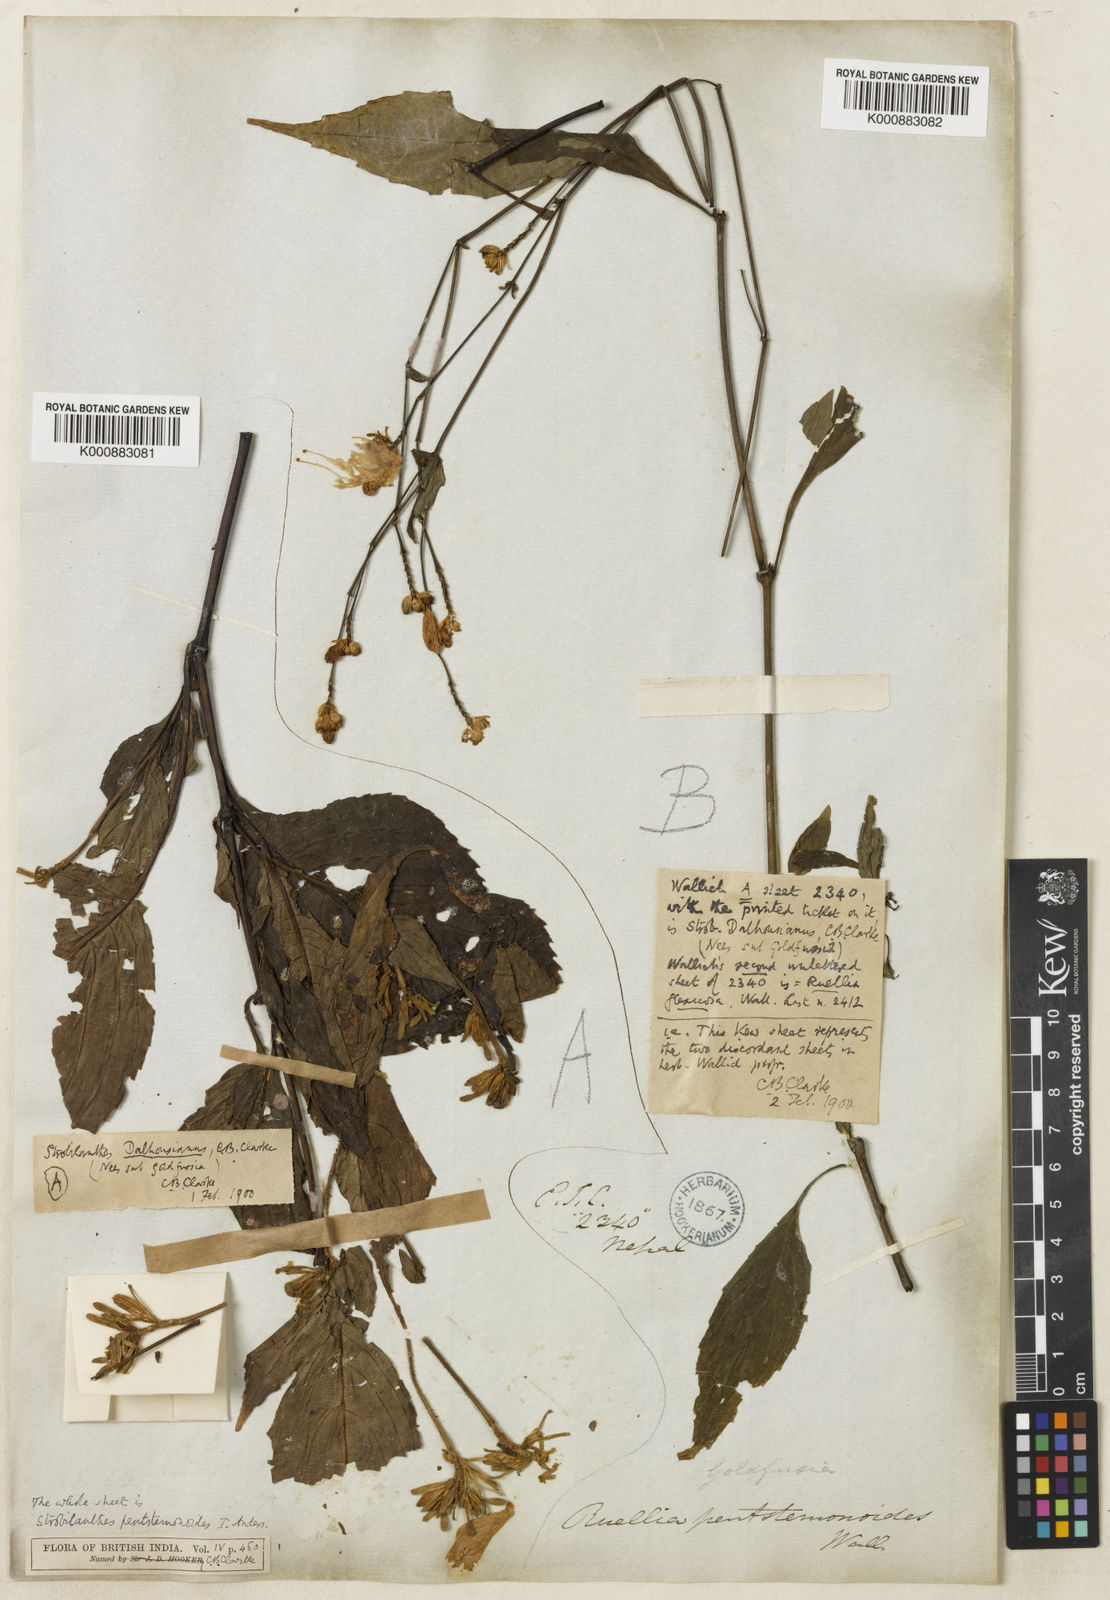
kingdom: Plantae
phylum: Tracheophyta
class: Magnoliopsida
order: Lamiales
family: Acanthaceae
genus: Strobilanthes
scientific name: Strobilanthes
